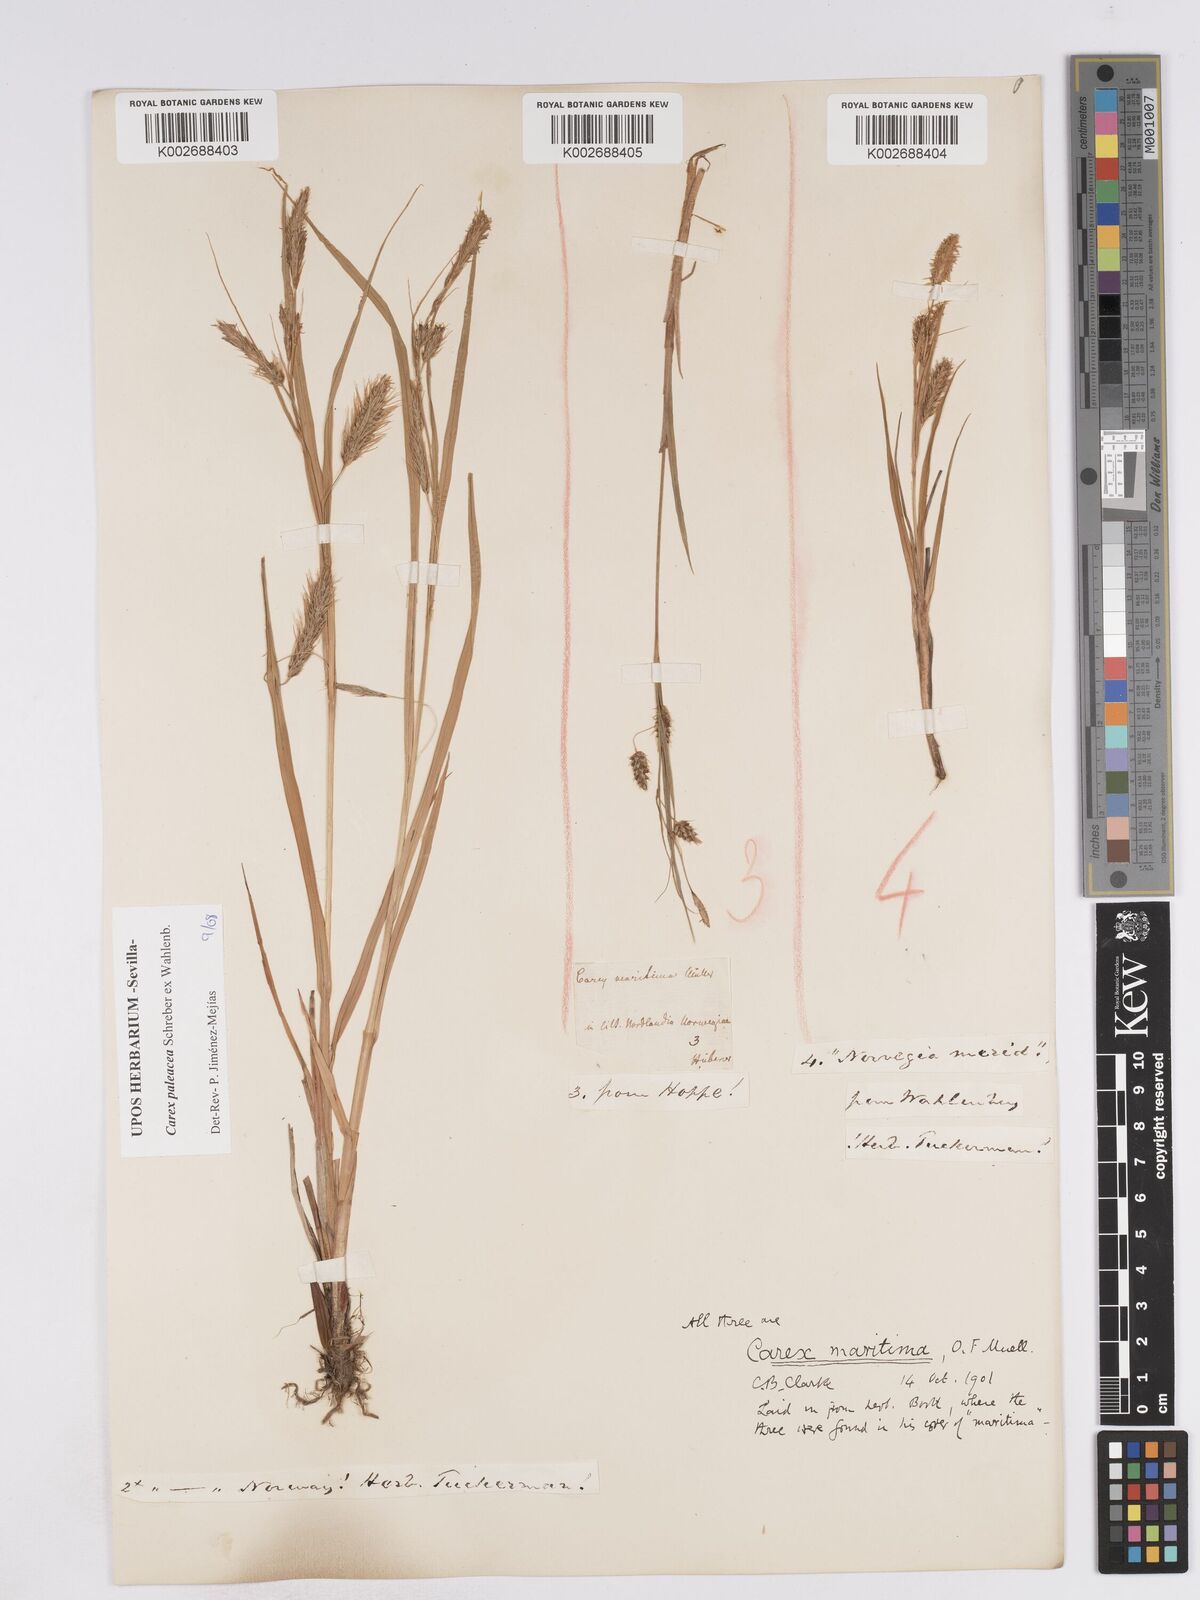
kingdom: Plantae
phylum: Tracheophyta
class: Liliopsida
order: Poales
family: Cyperaceae
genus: Carex
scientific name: Carex paleacea
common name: Chaffy sedge
